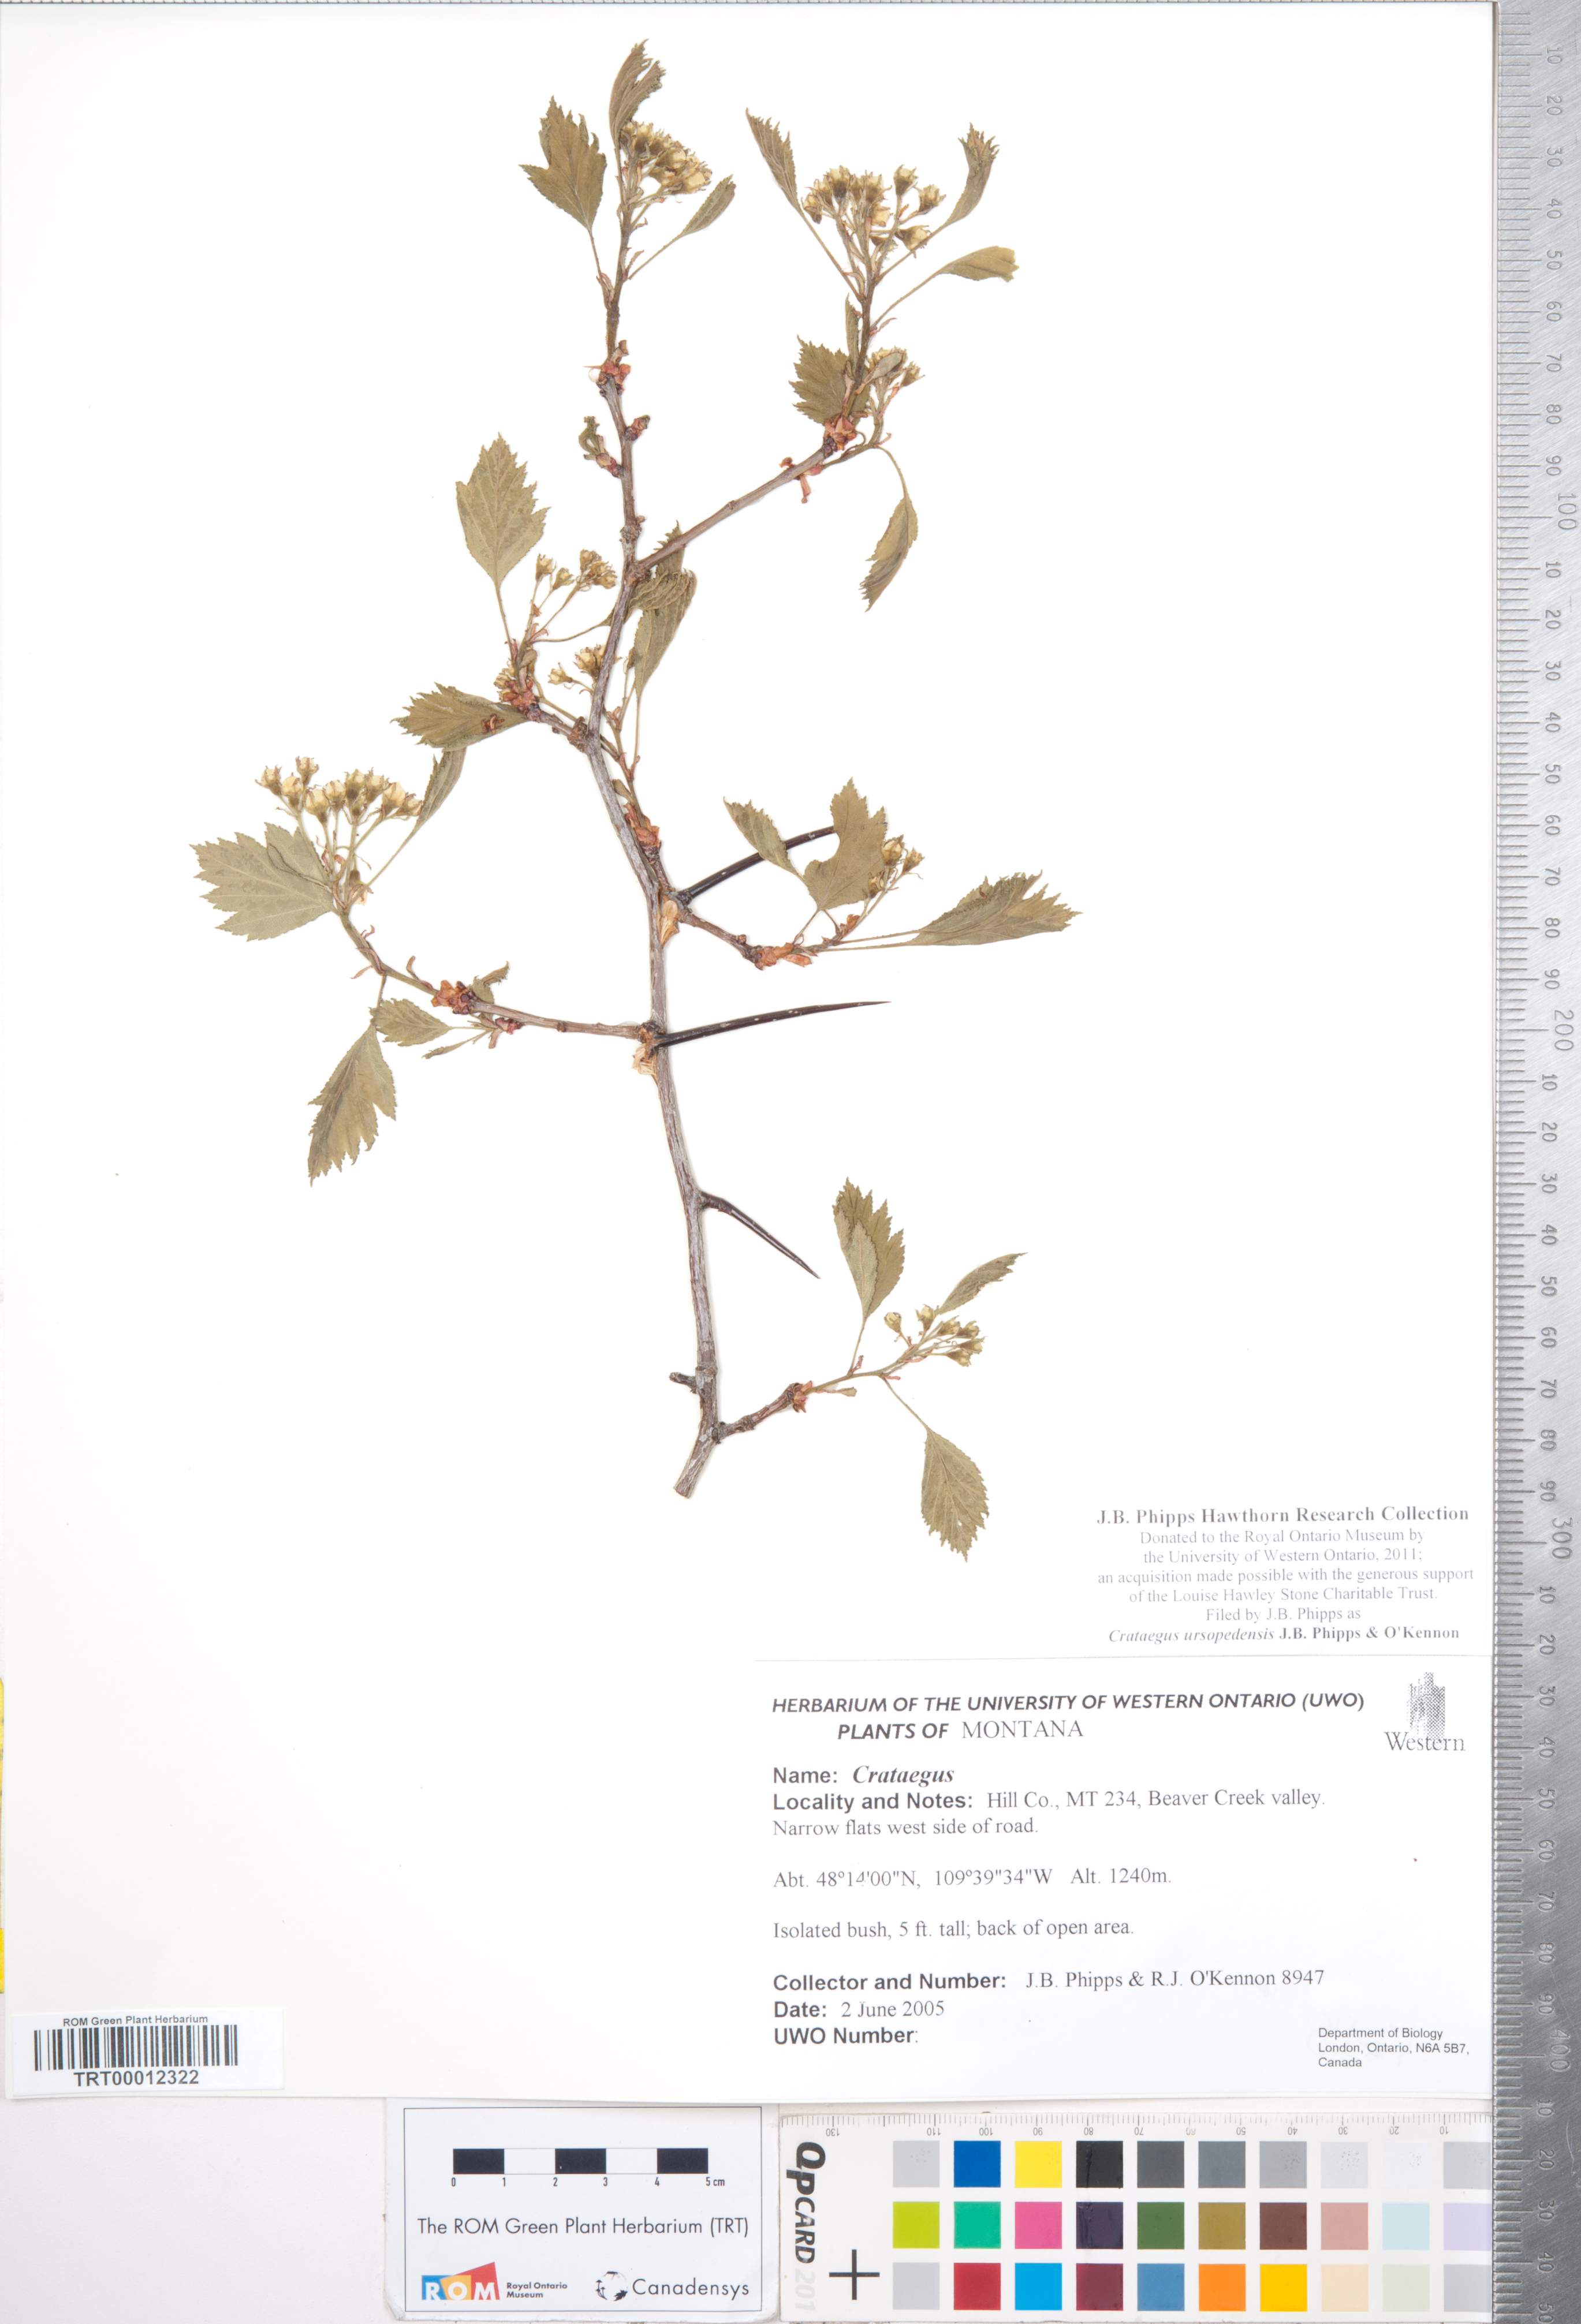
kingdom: Plantae
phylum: Tracheophyta
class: Magnoliopsida
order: Rosales
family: Rosaceae
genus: Crataegus
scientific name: Crataegus ursopedensis
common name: Bears paw hawthorn
